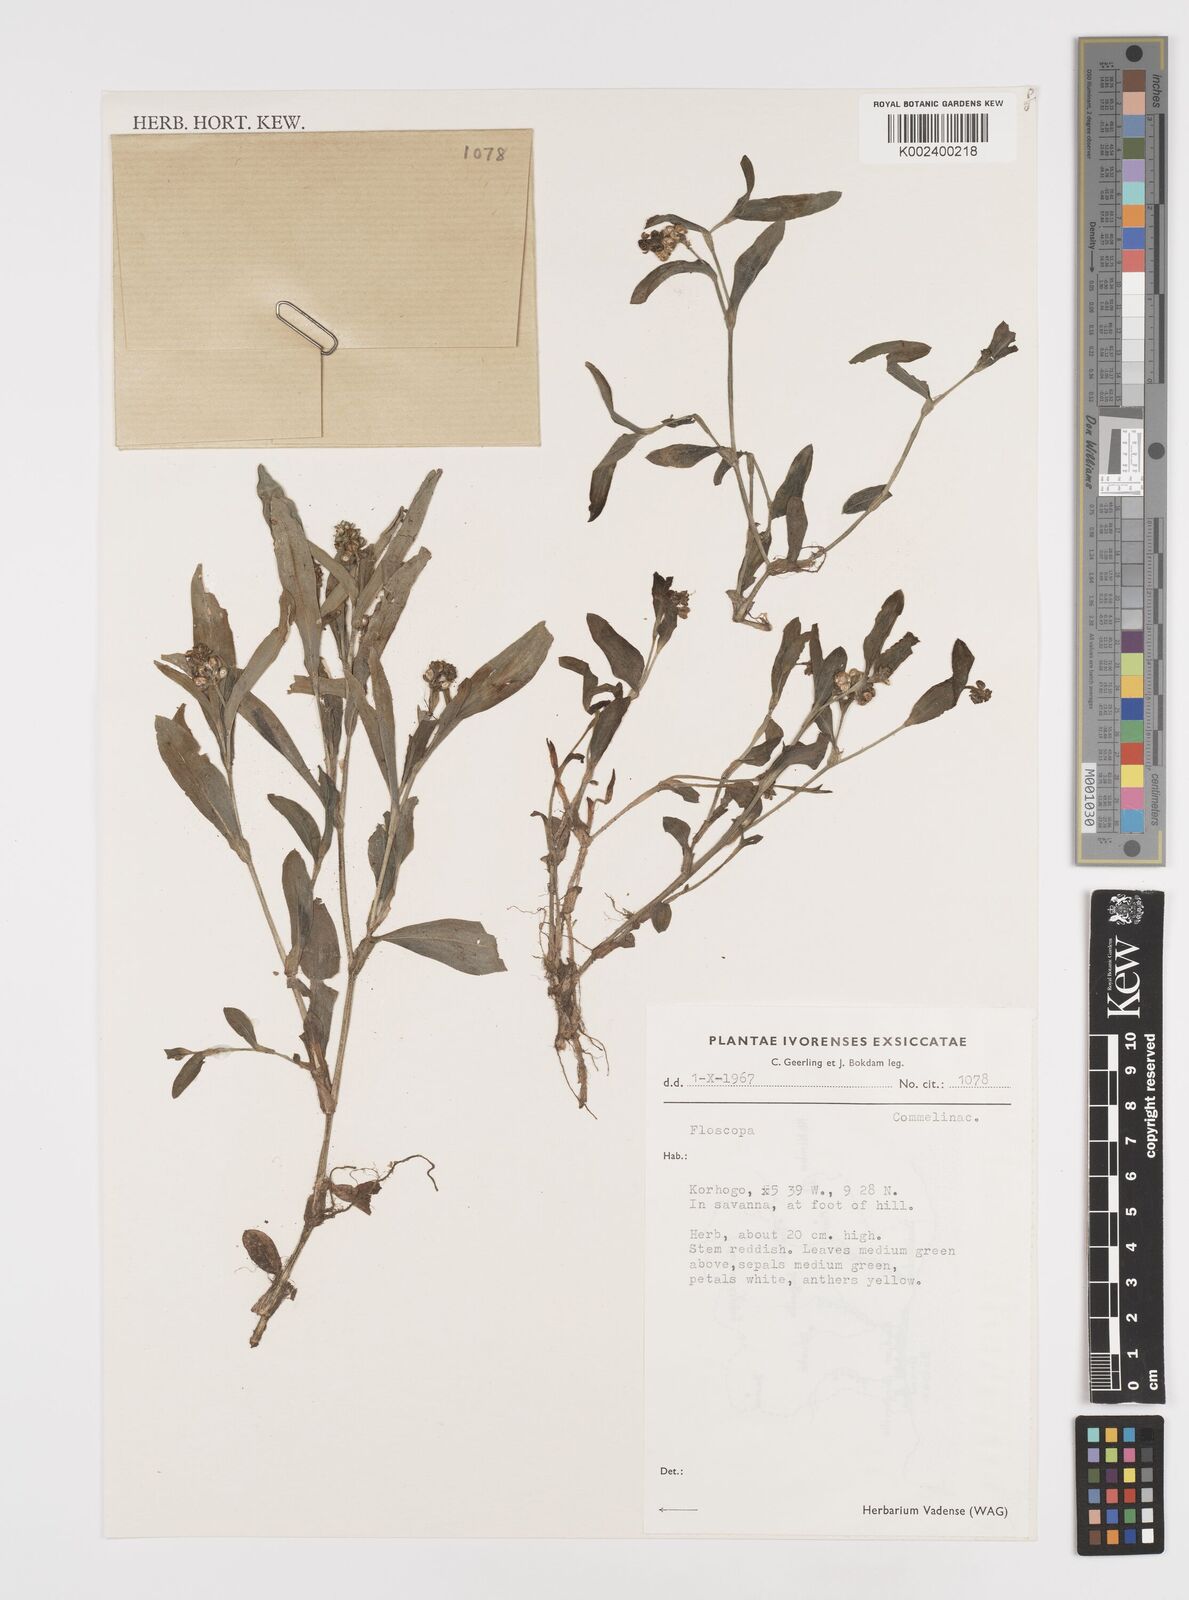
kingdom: Plantae
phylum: Tracheophyta
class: Liliopsida
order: Commelinales
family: Commelinaceae
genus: Floscopa
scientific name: Floscopa
